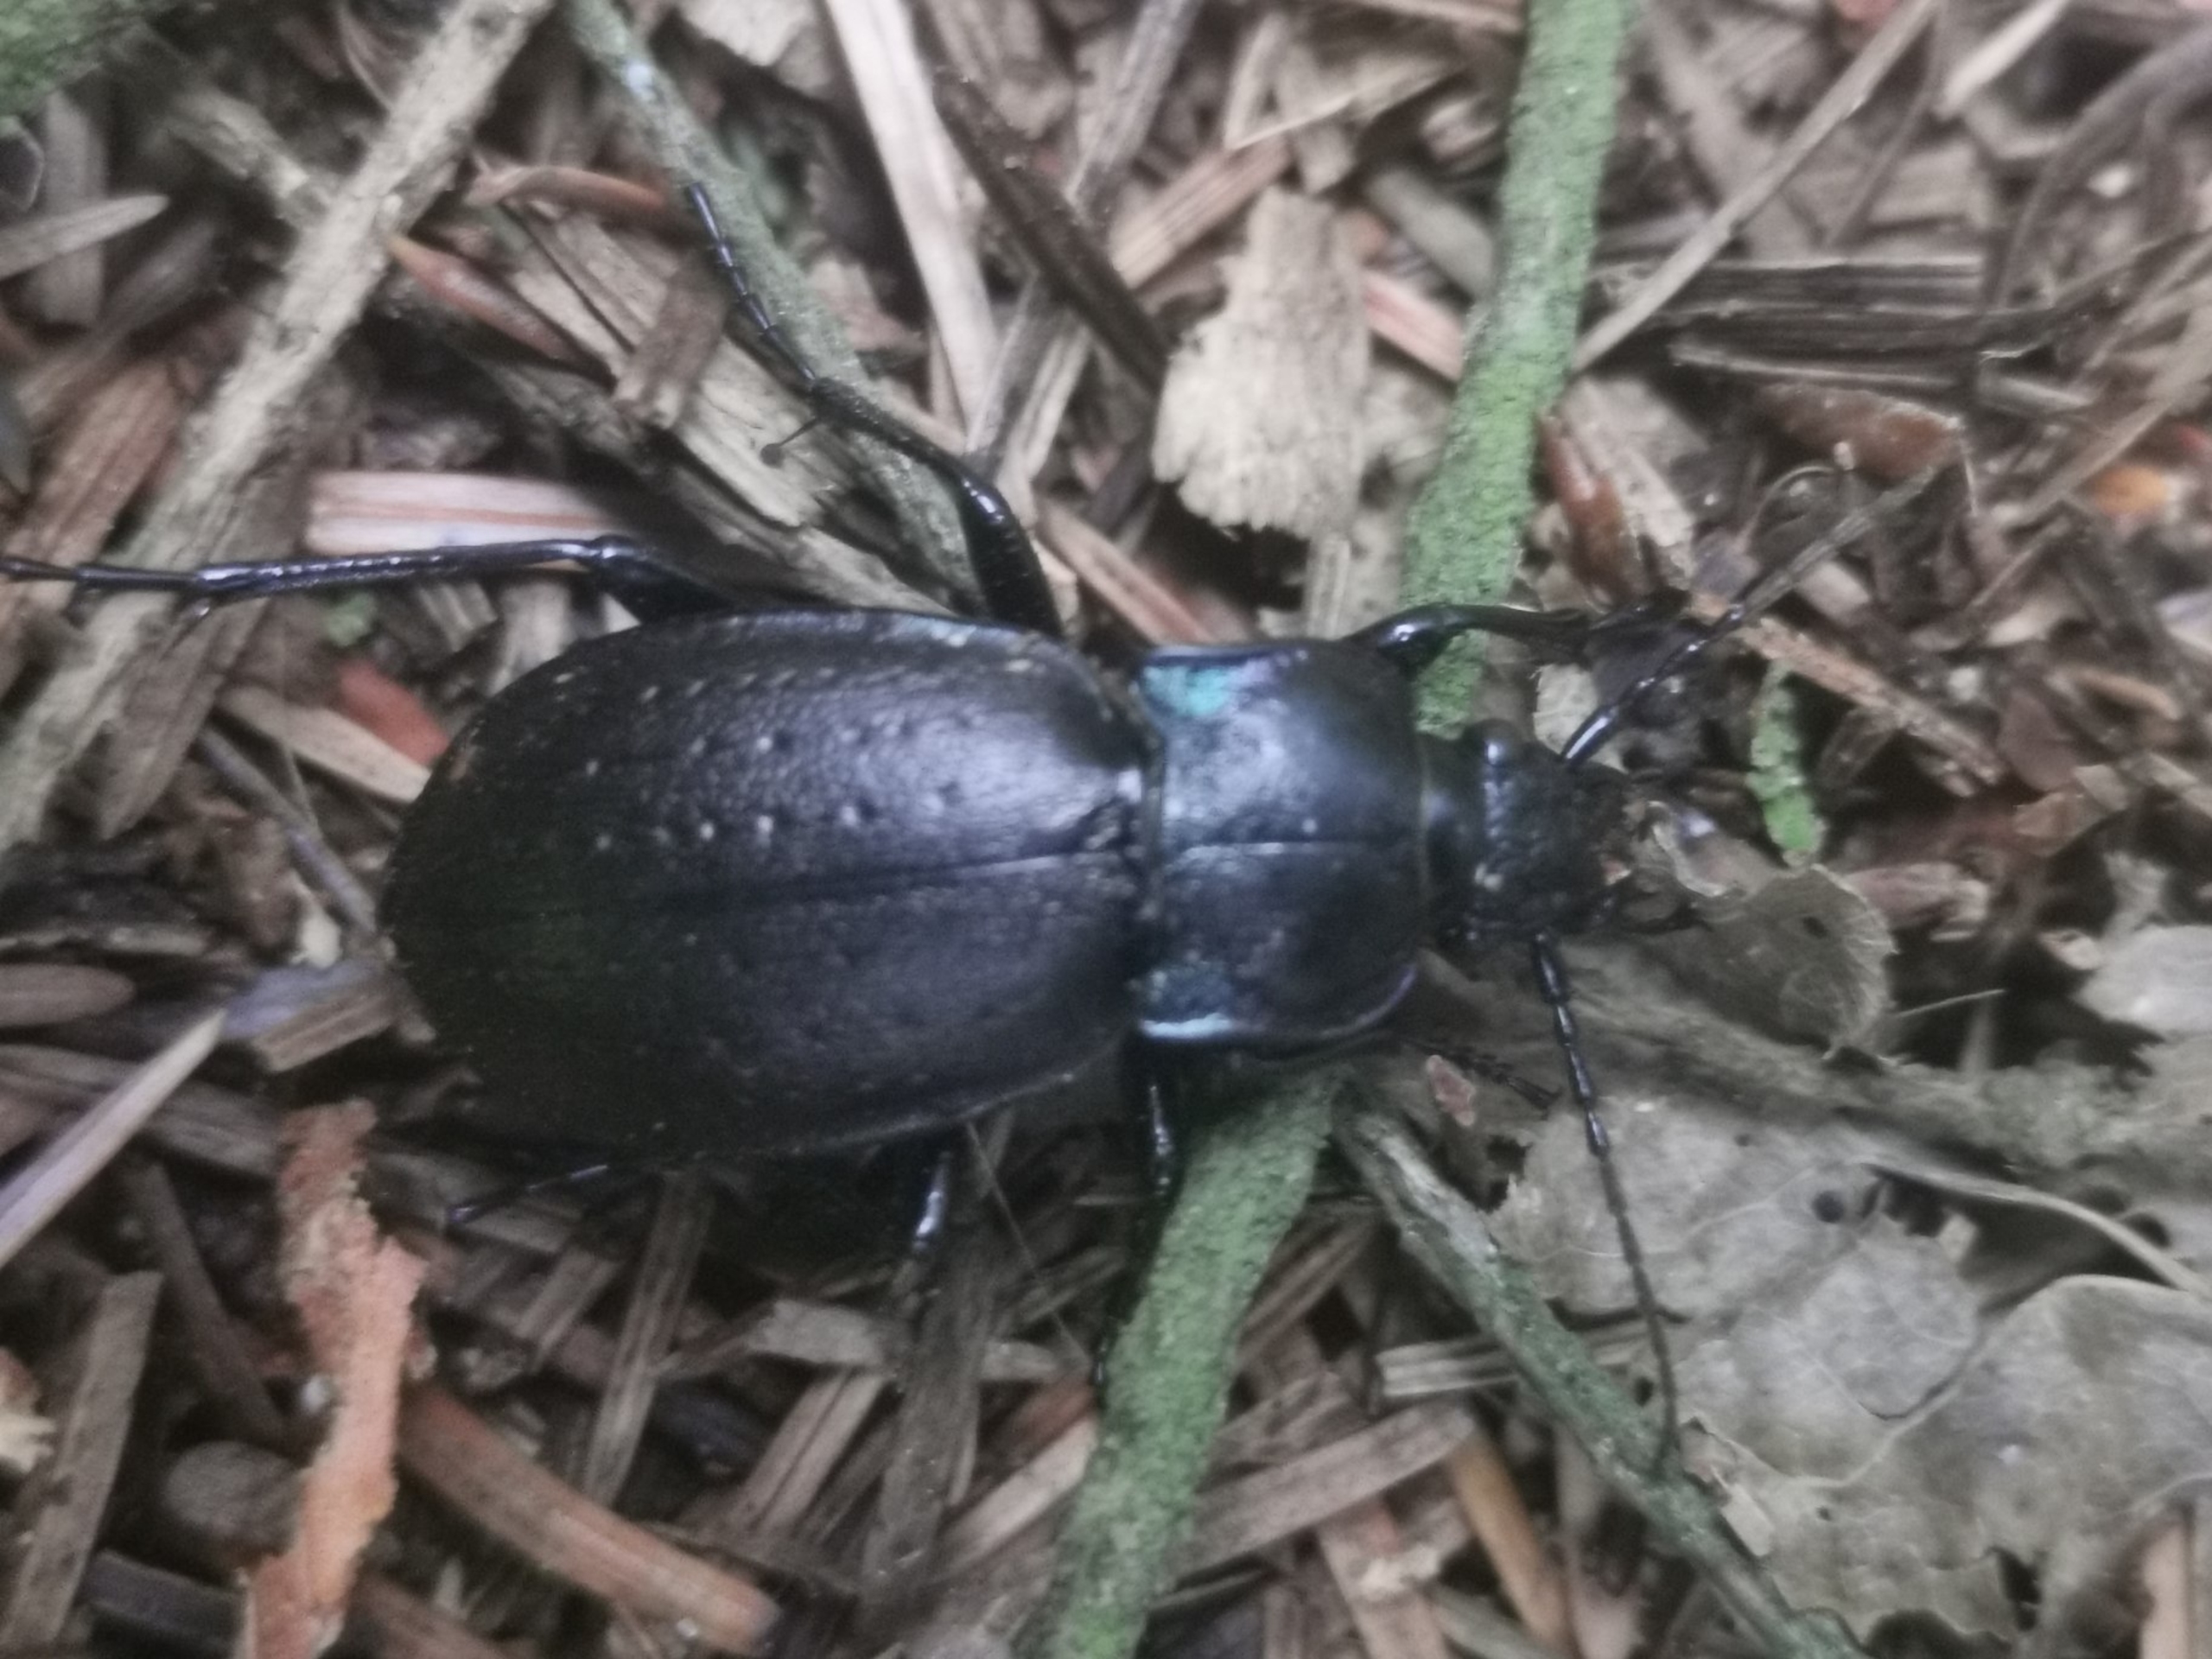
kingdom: Animalia
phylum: Arthropoda
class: Insecta
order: Coleoptera
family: Carabidae
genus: Carabus
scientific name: Carabus nemoralis
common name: Kratløber
